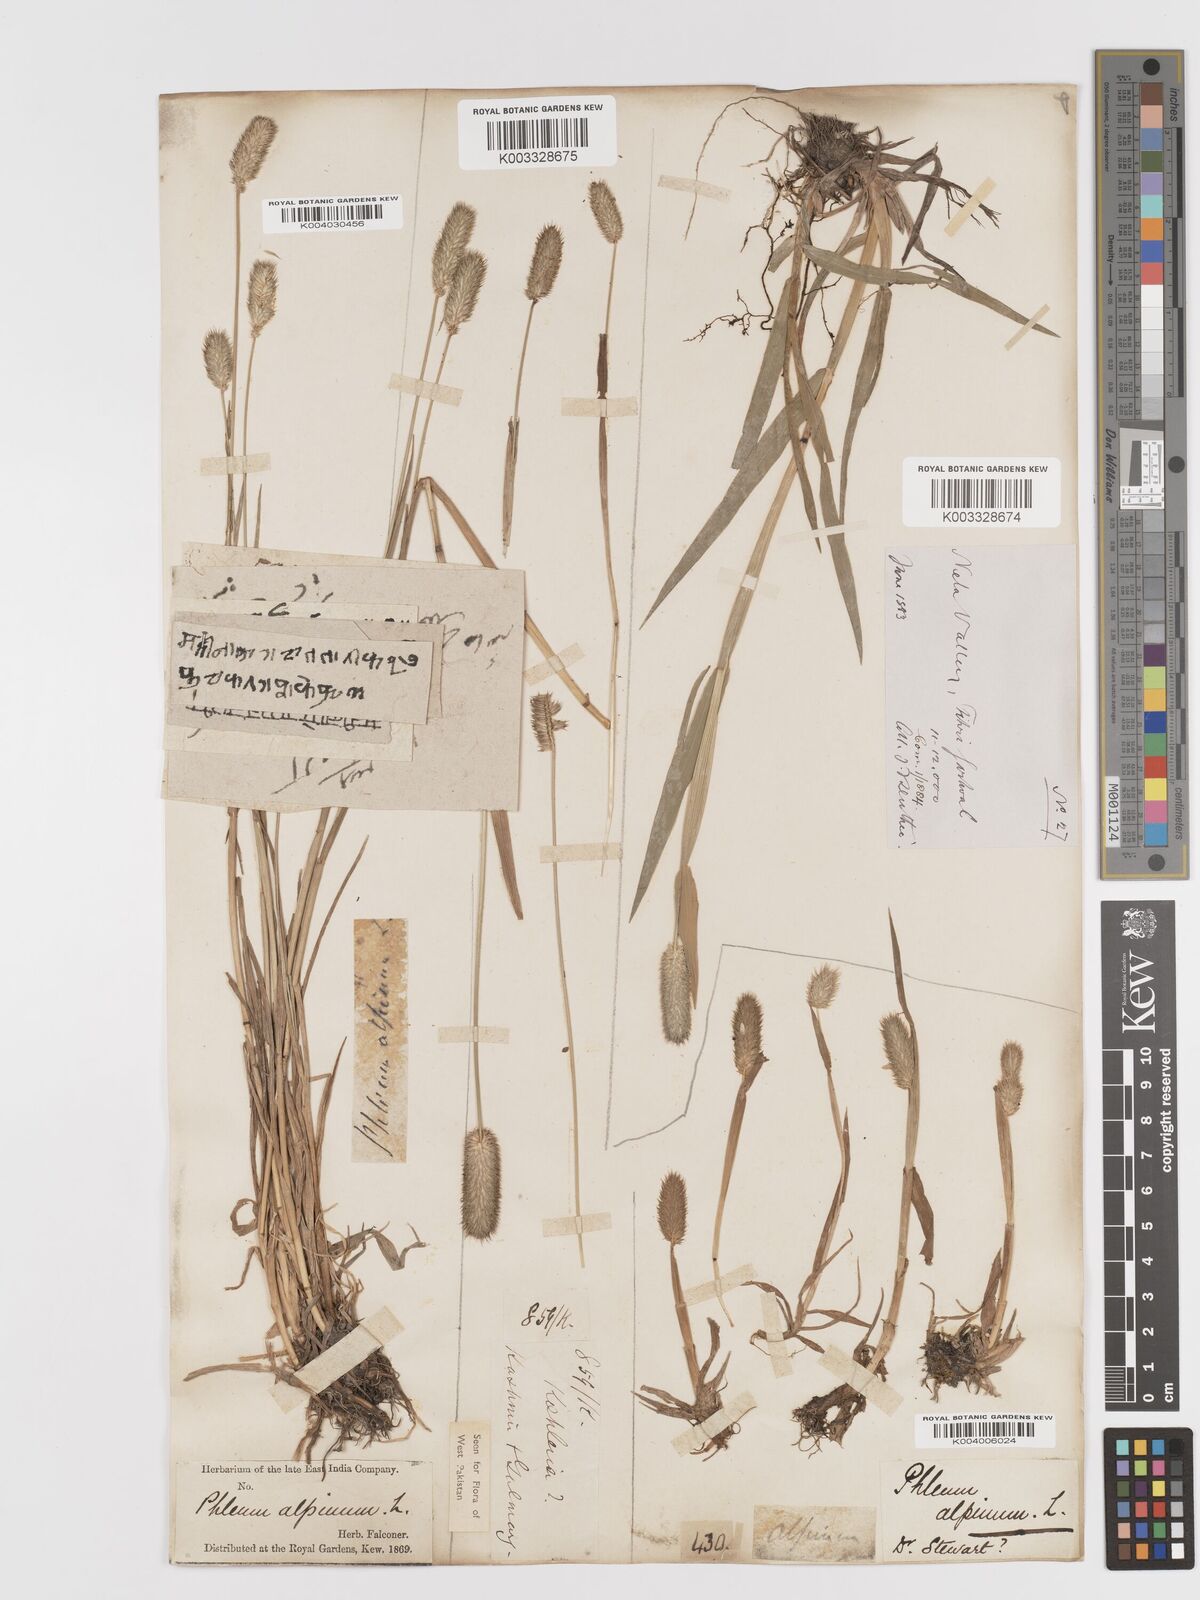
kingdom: Plantae
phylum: Tracheophyta
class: Liliopsida
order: Poales
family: Poaceae
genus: Phleum
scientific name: Phleum alpinum
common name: Alpine cat's-tail
